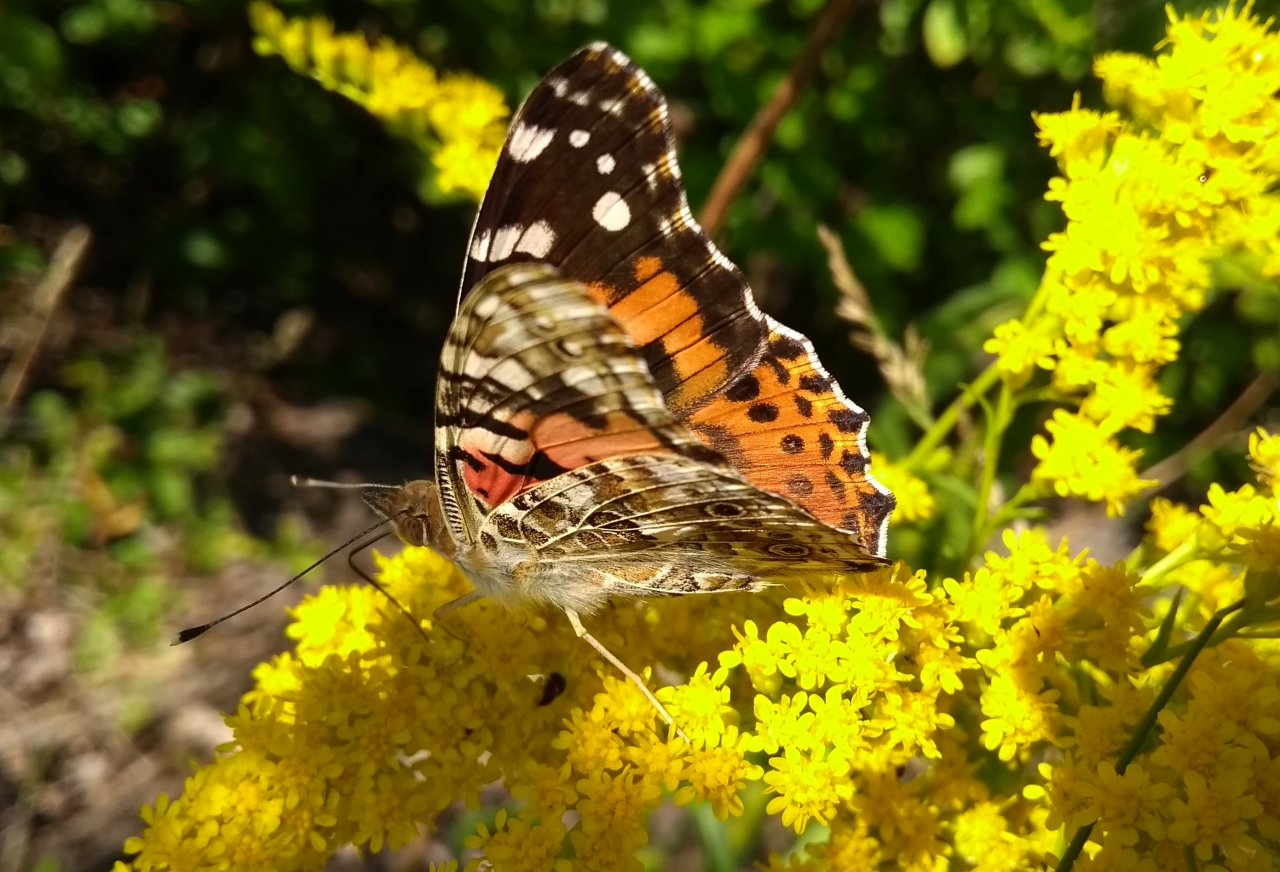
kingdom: Animalia
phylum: Arthropoda
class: Insecta
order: Lepidoptera
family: Nymphalidae
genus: Vanessa
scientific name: Vanessa cardui
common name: Painted Lady
